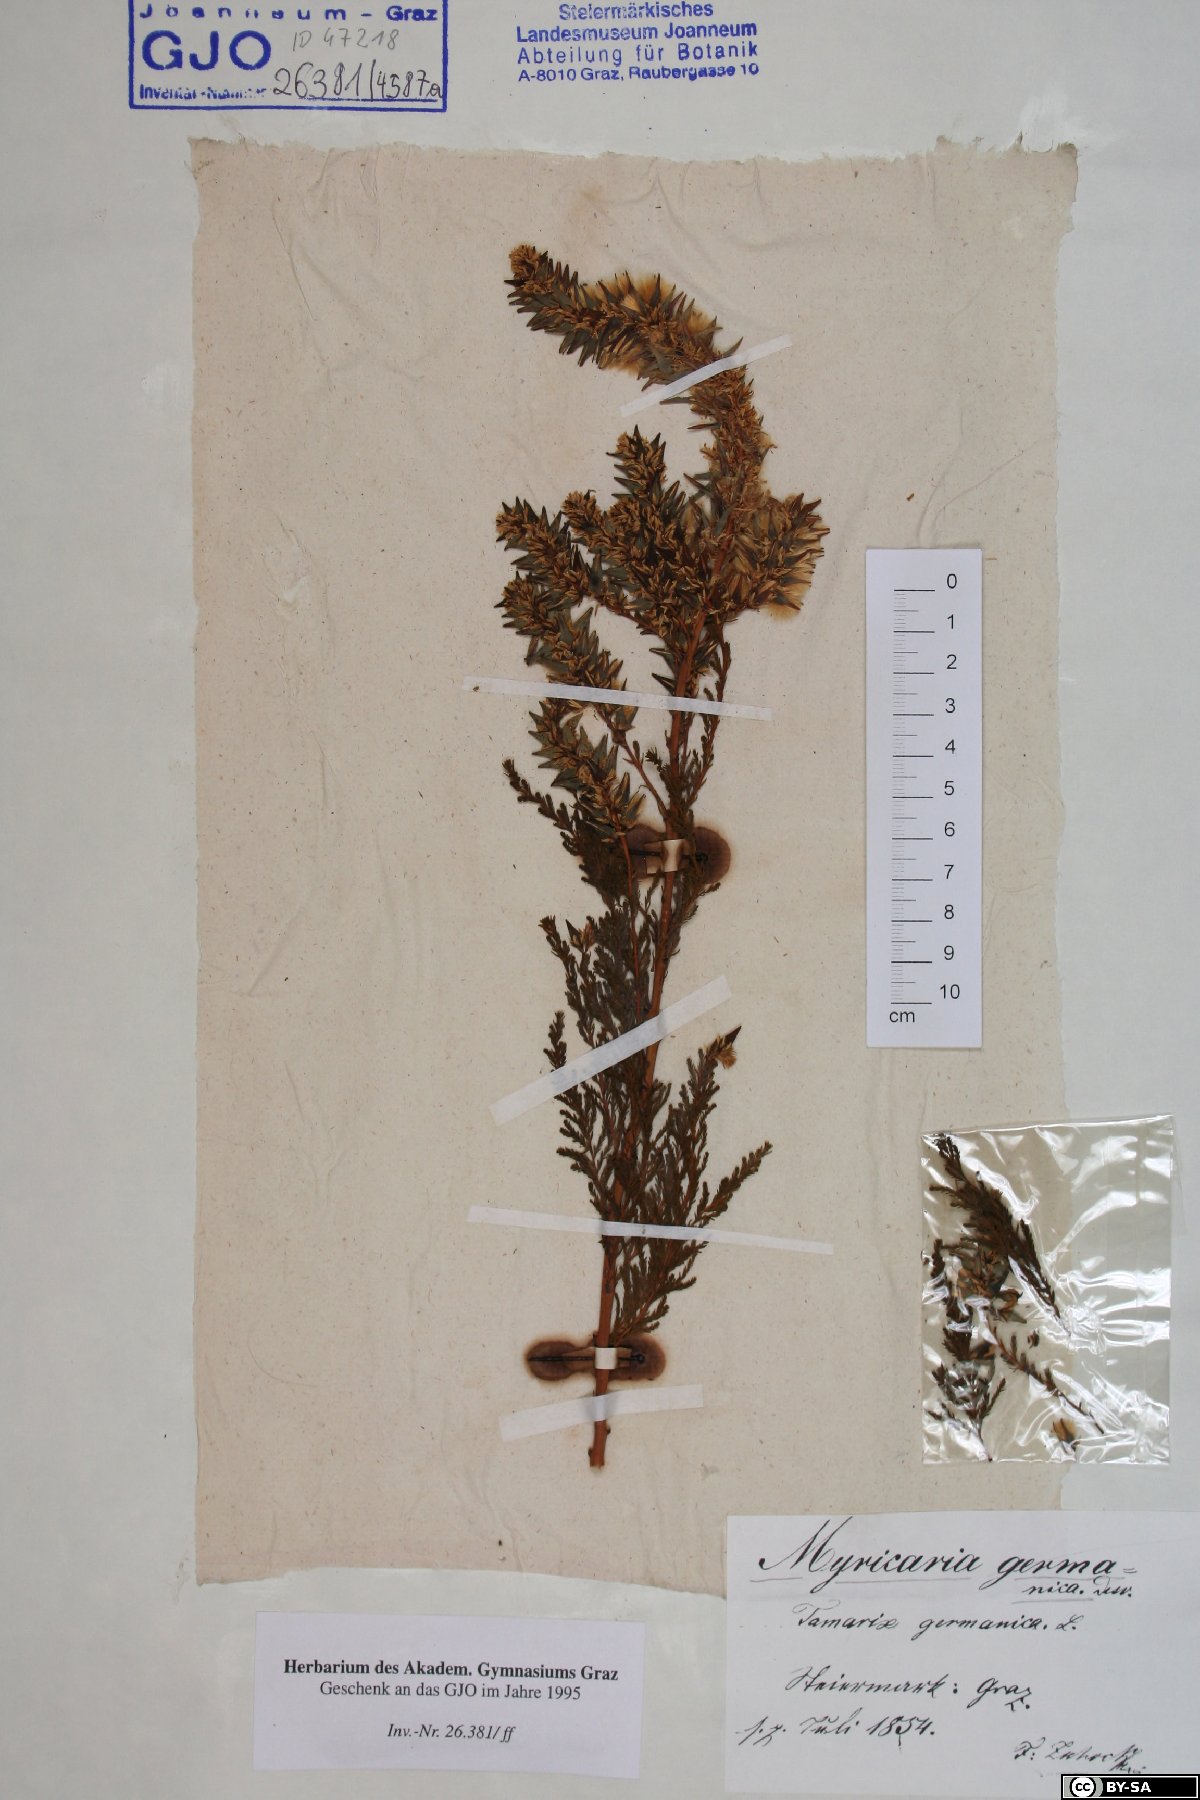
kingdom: Plantae
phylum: Tracheophyta
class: Magnoliopsida
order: Caryophyllales
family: Tamaricaceae
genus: Myricaria
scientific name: Myricaria germanica
